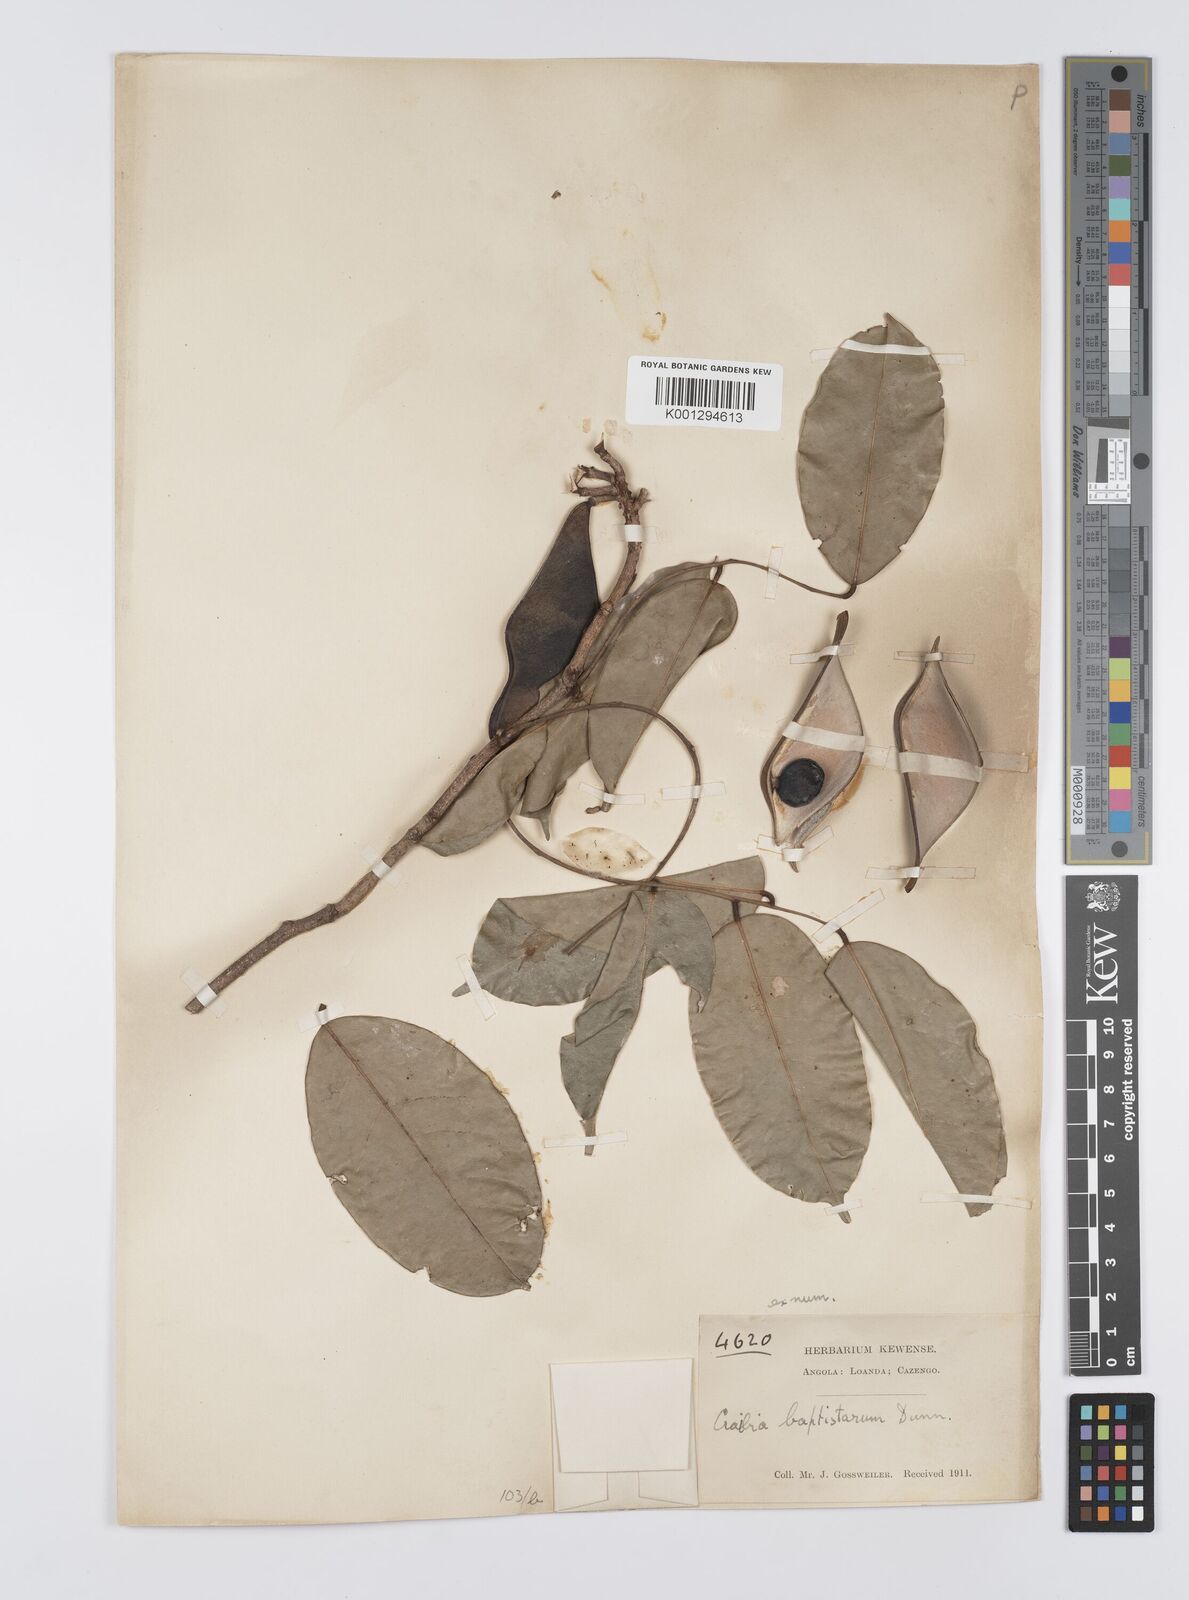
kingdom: Plantae
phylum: Tracheophyta
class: Magnoliopsida
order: Fabales
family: Fabaceae
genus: Craibia
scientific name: Craibia brevicaudata
